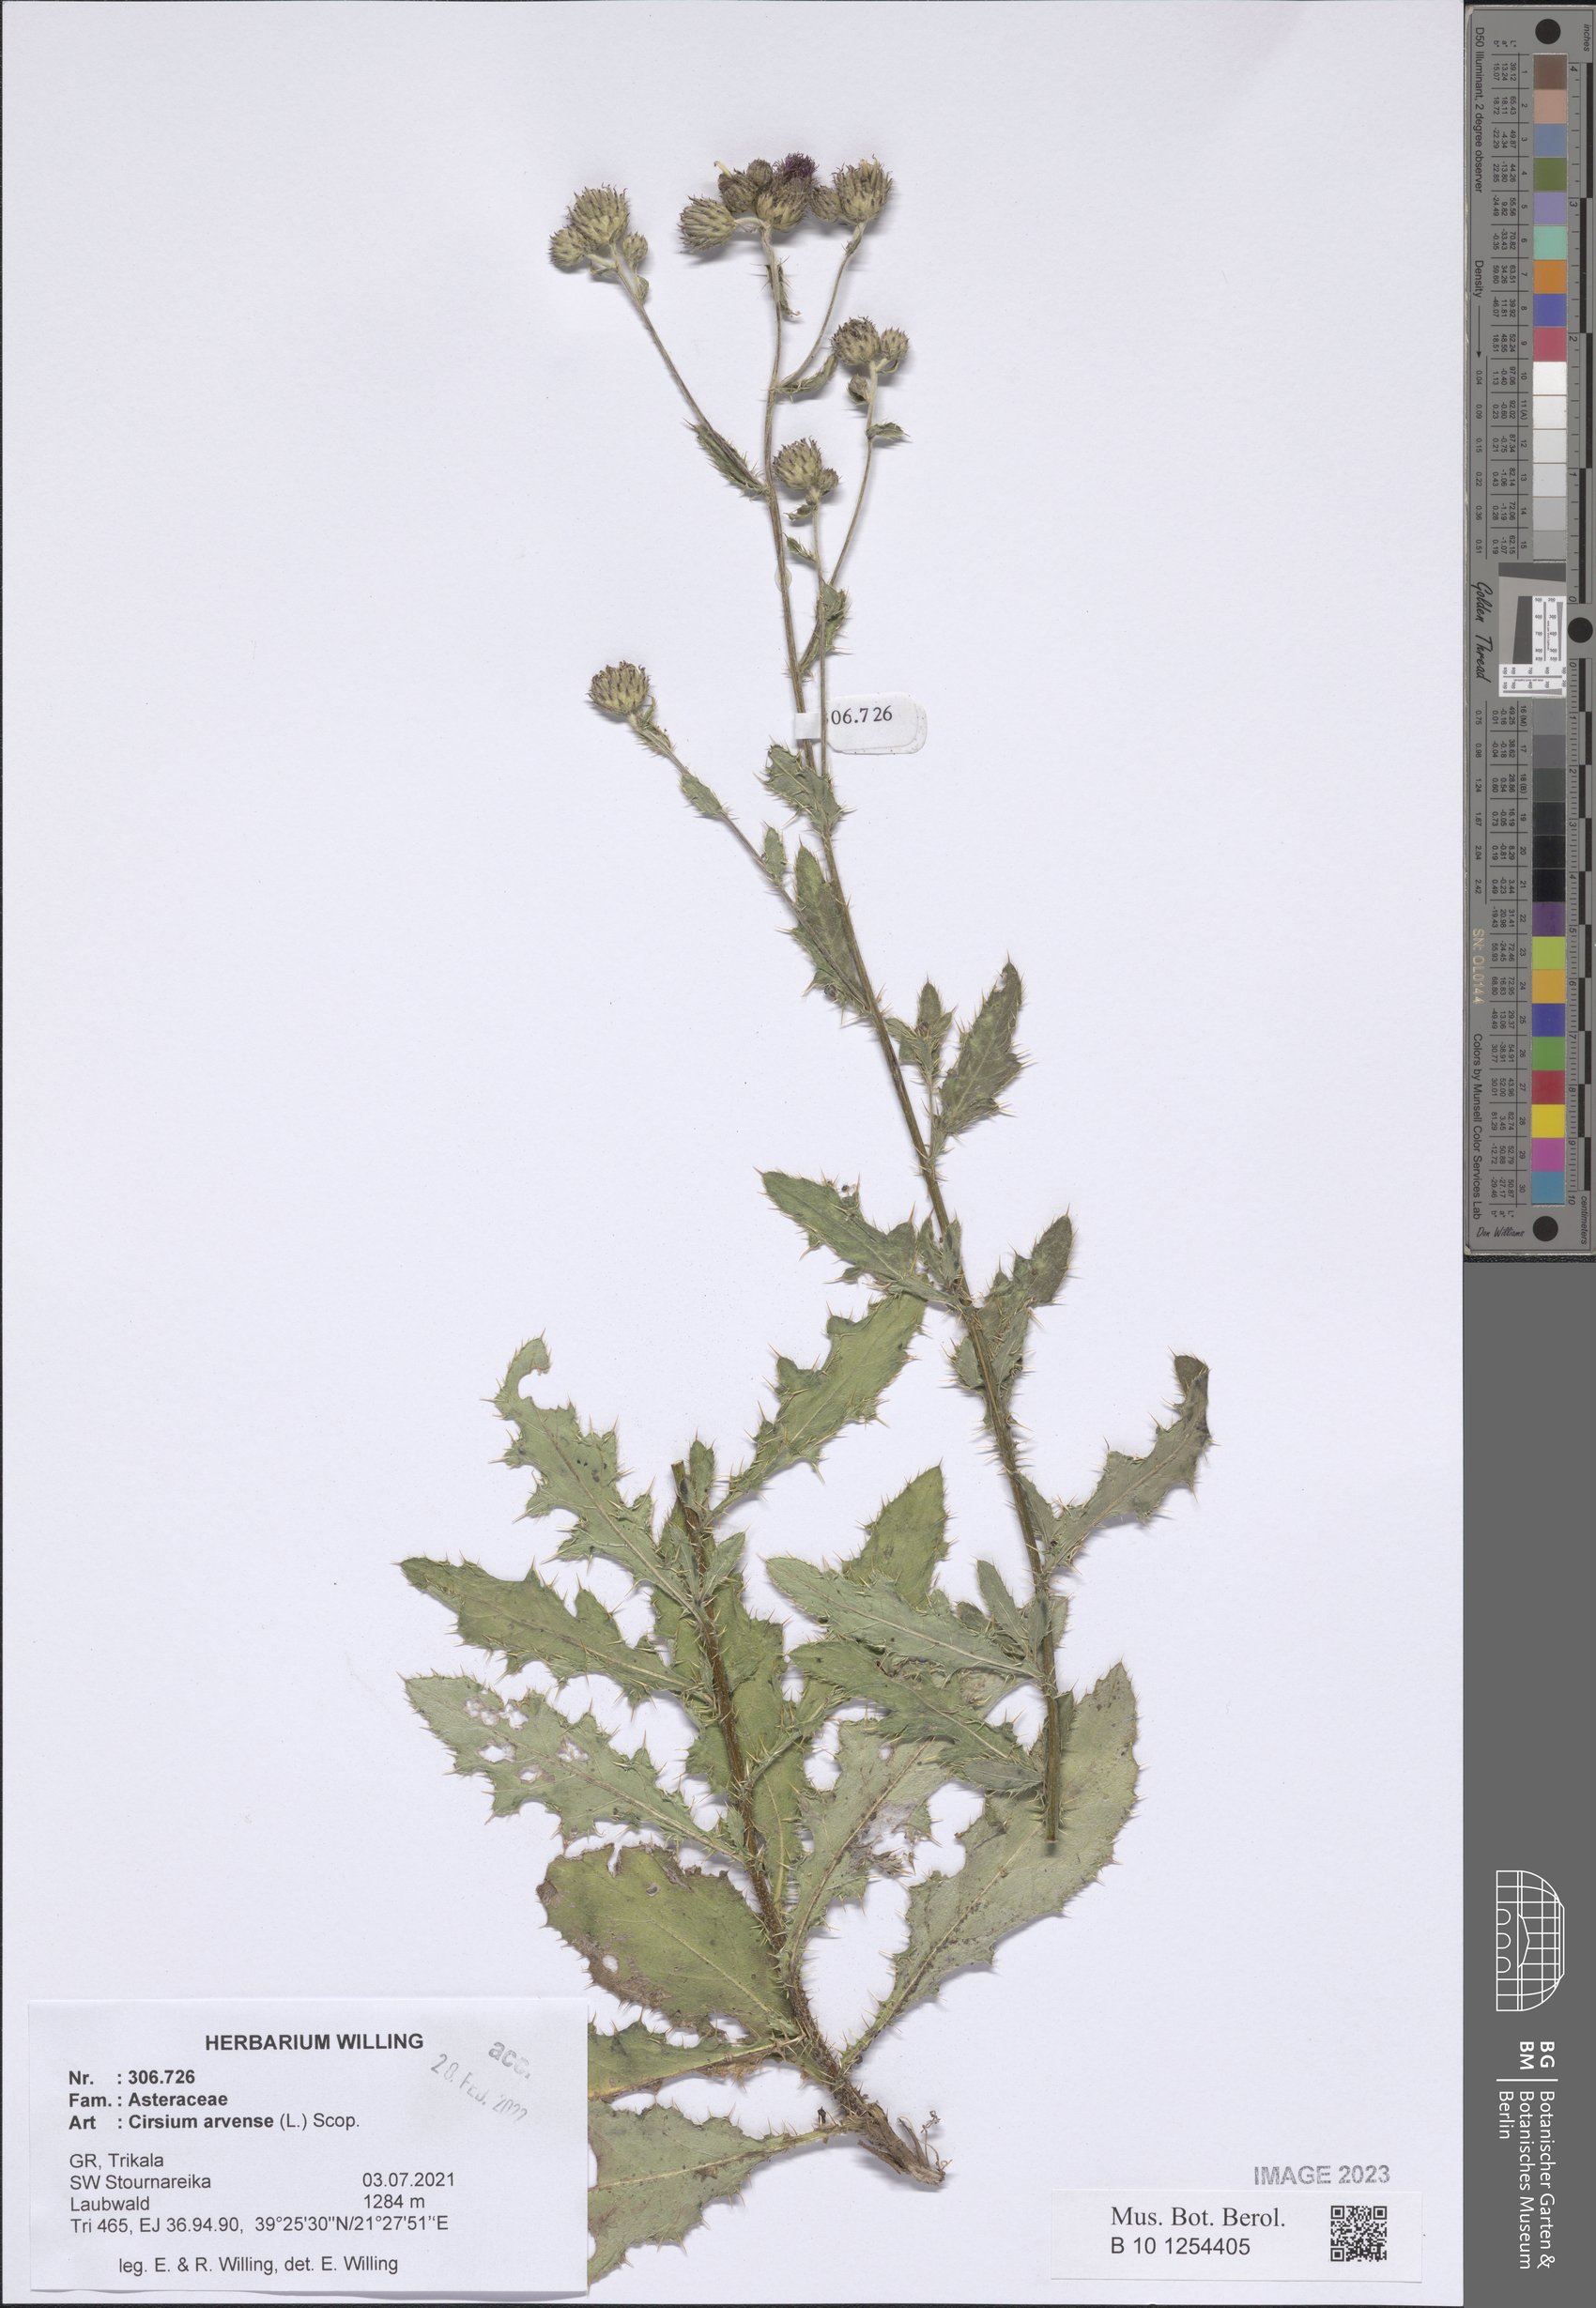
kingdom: Plantae
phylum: Tracheophyta
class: Magnoliopsida
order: Asterales
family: Asteraceae
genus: Cirsium
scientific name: Cirsium arvense
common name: Creeping thistle
